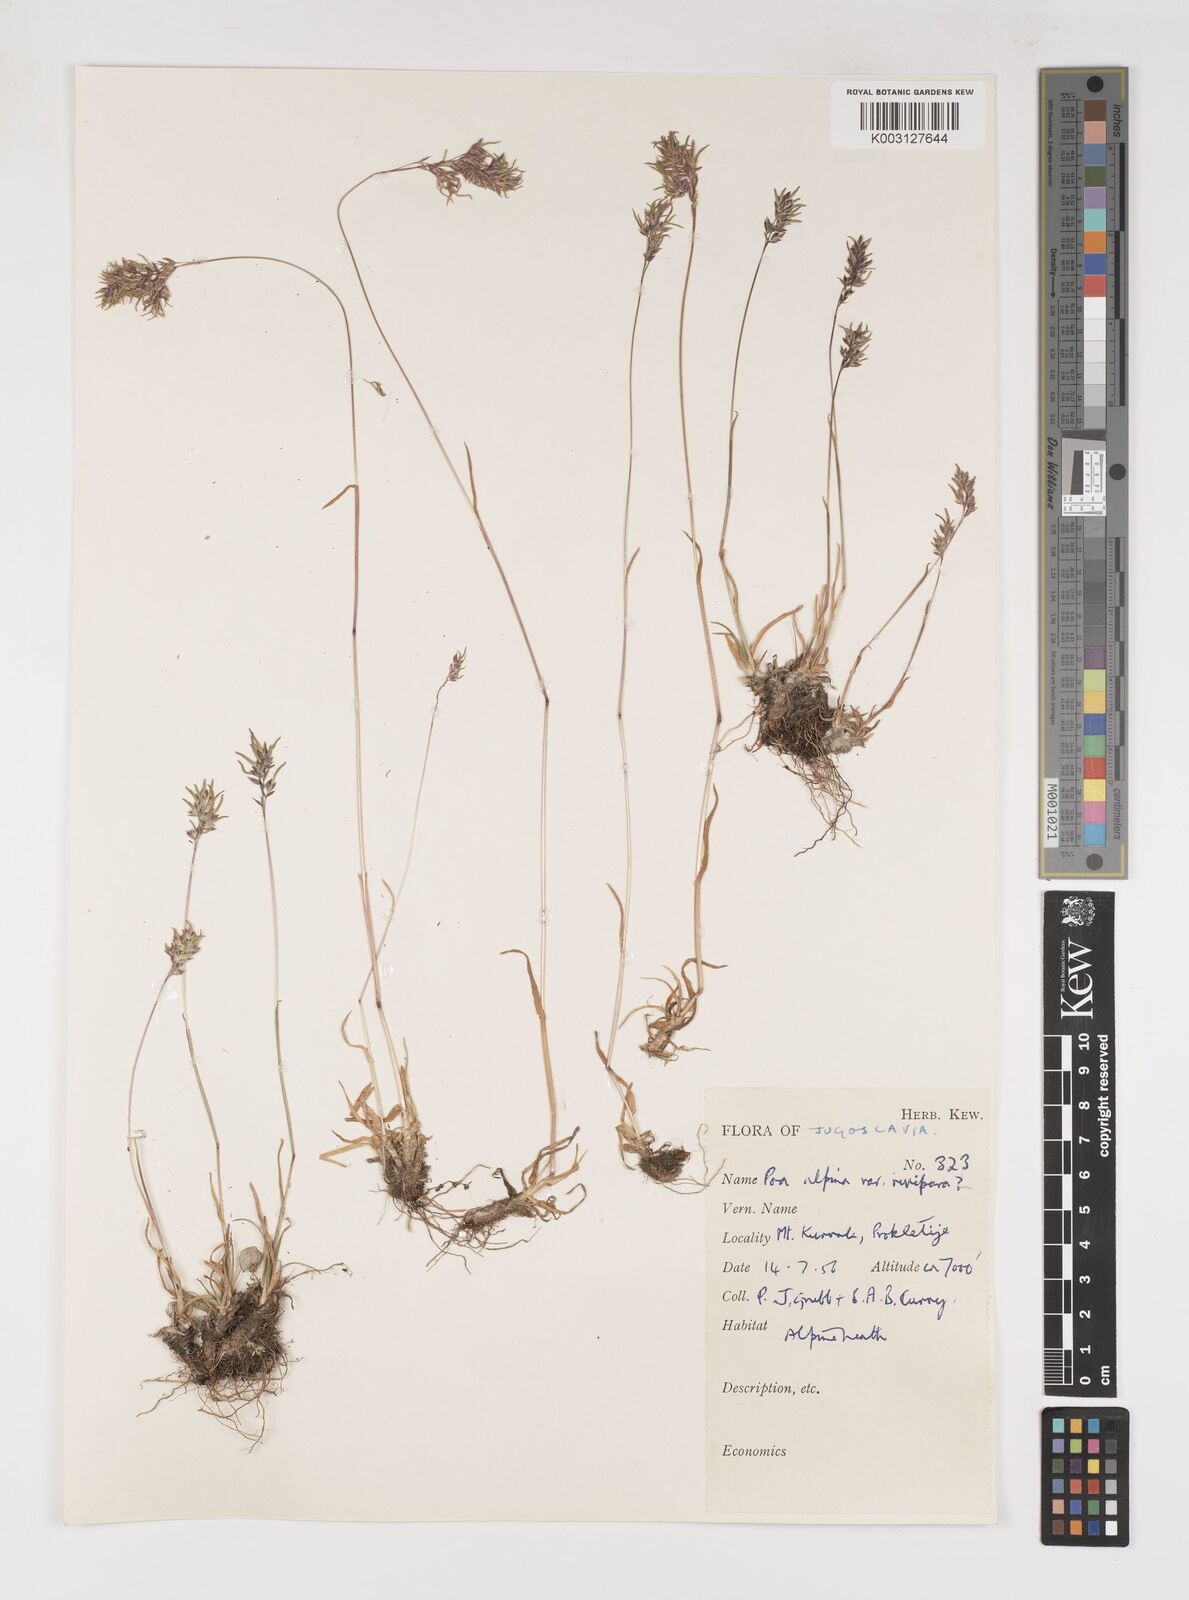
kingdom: Plantae
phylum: Tracheophyta
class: Liliopsida
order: Poales
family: Poaceae
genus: Poa
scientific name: Poa
